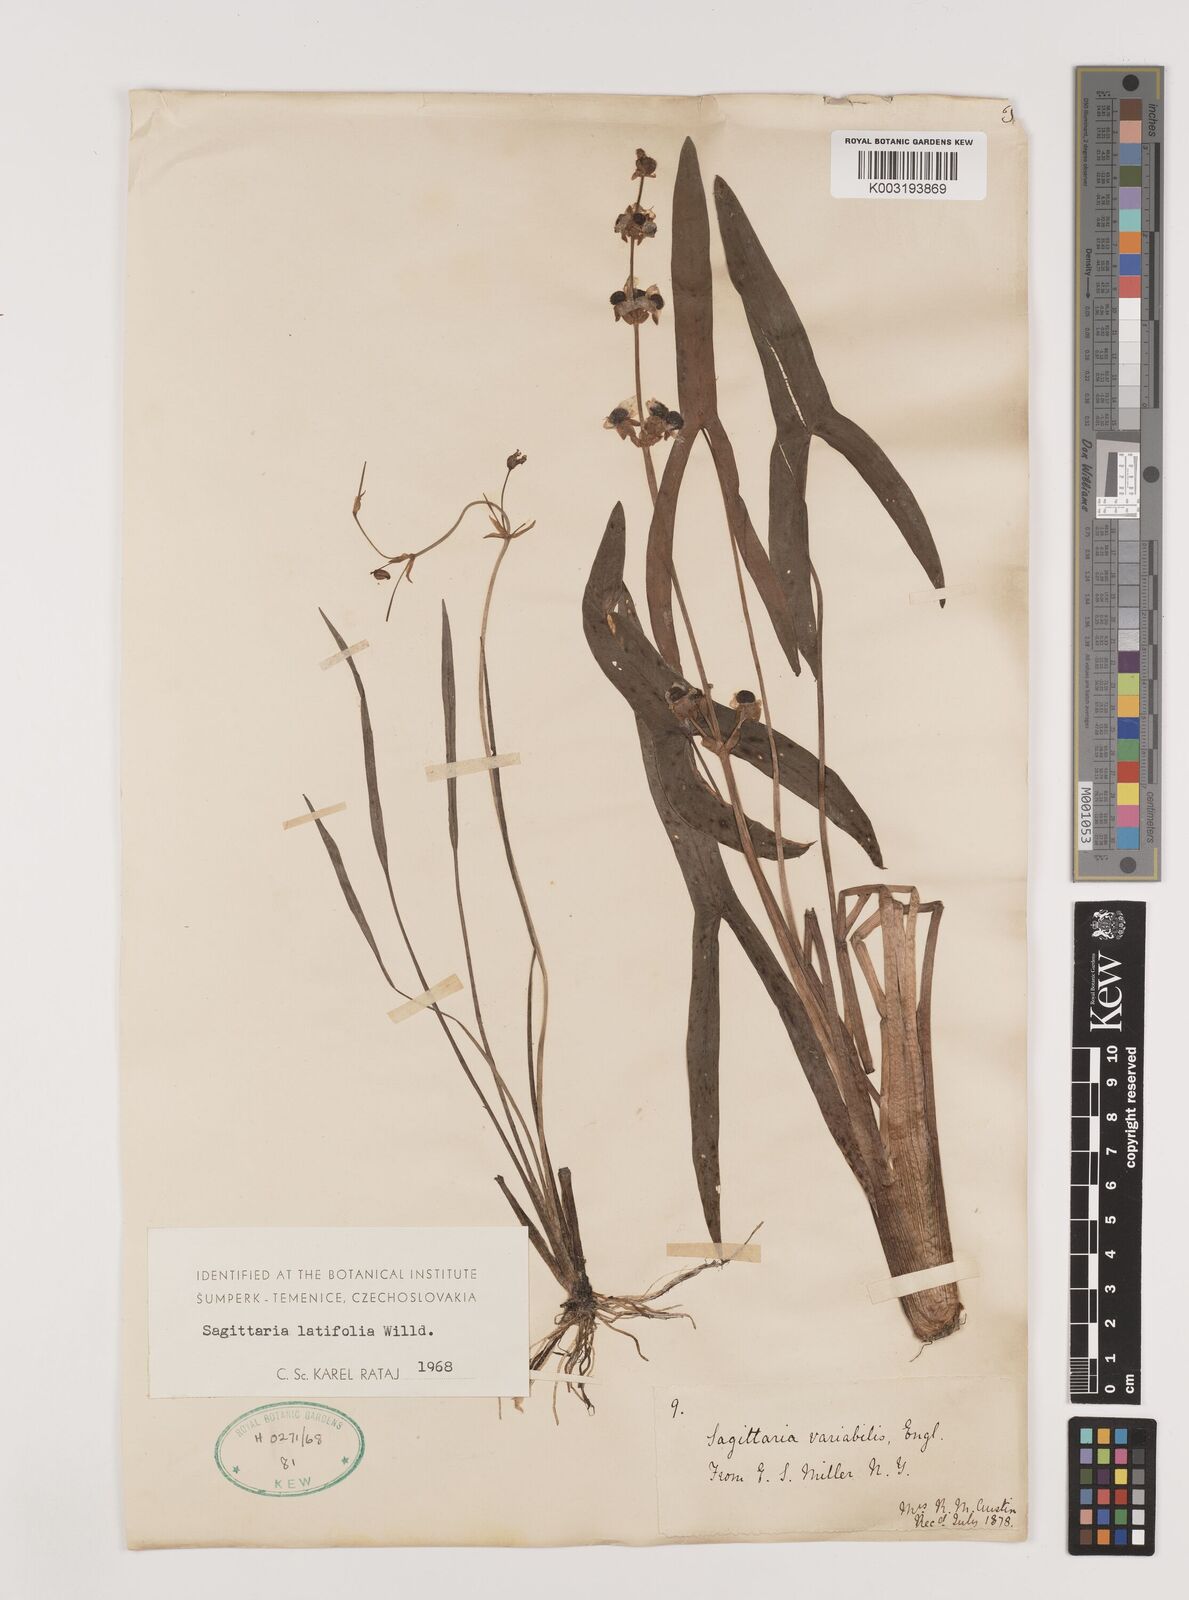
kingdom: Plantae
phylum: Tracheophyta
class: Liliopsida
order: Alismatales
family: Alismataceae
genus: Sagittaria
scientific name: Sagittaria latifolia
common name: Duck-potato
